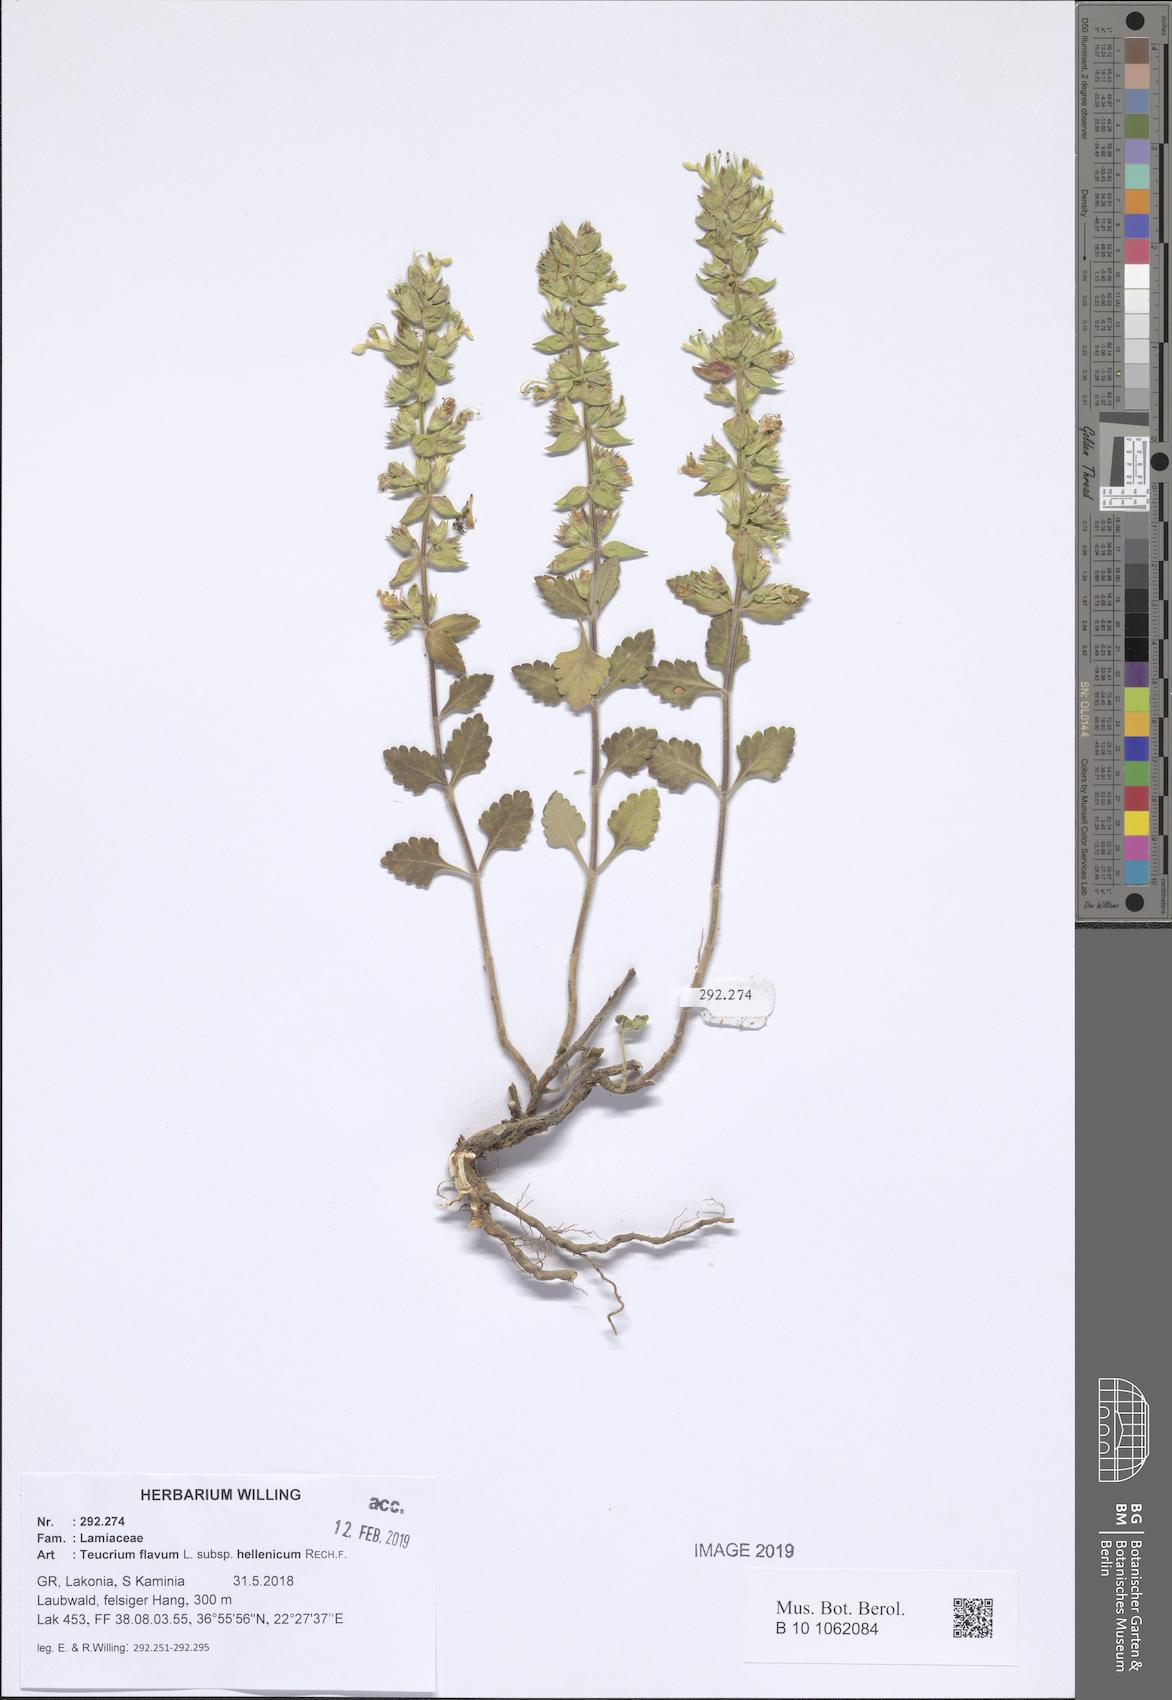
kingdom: Plantae
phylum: Tracheophyta
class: Magnoliopsida
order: Lamiales
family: Lamiaceae
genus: Teucrium
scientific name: Teucrium flavum
